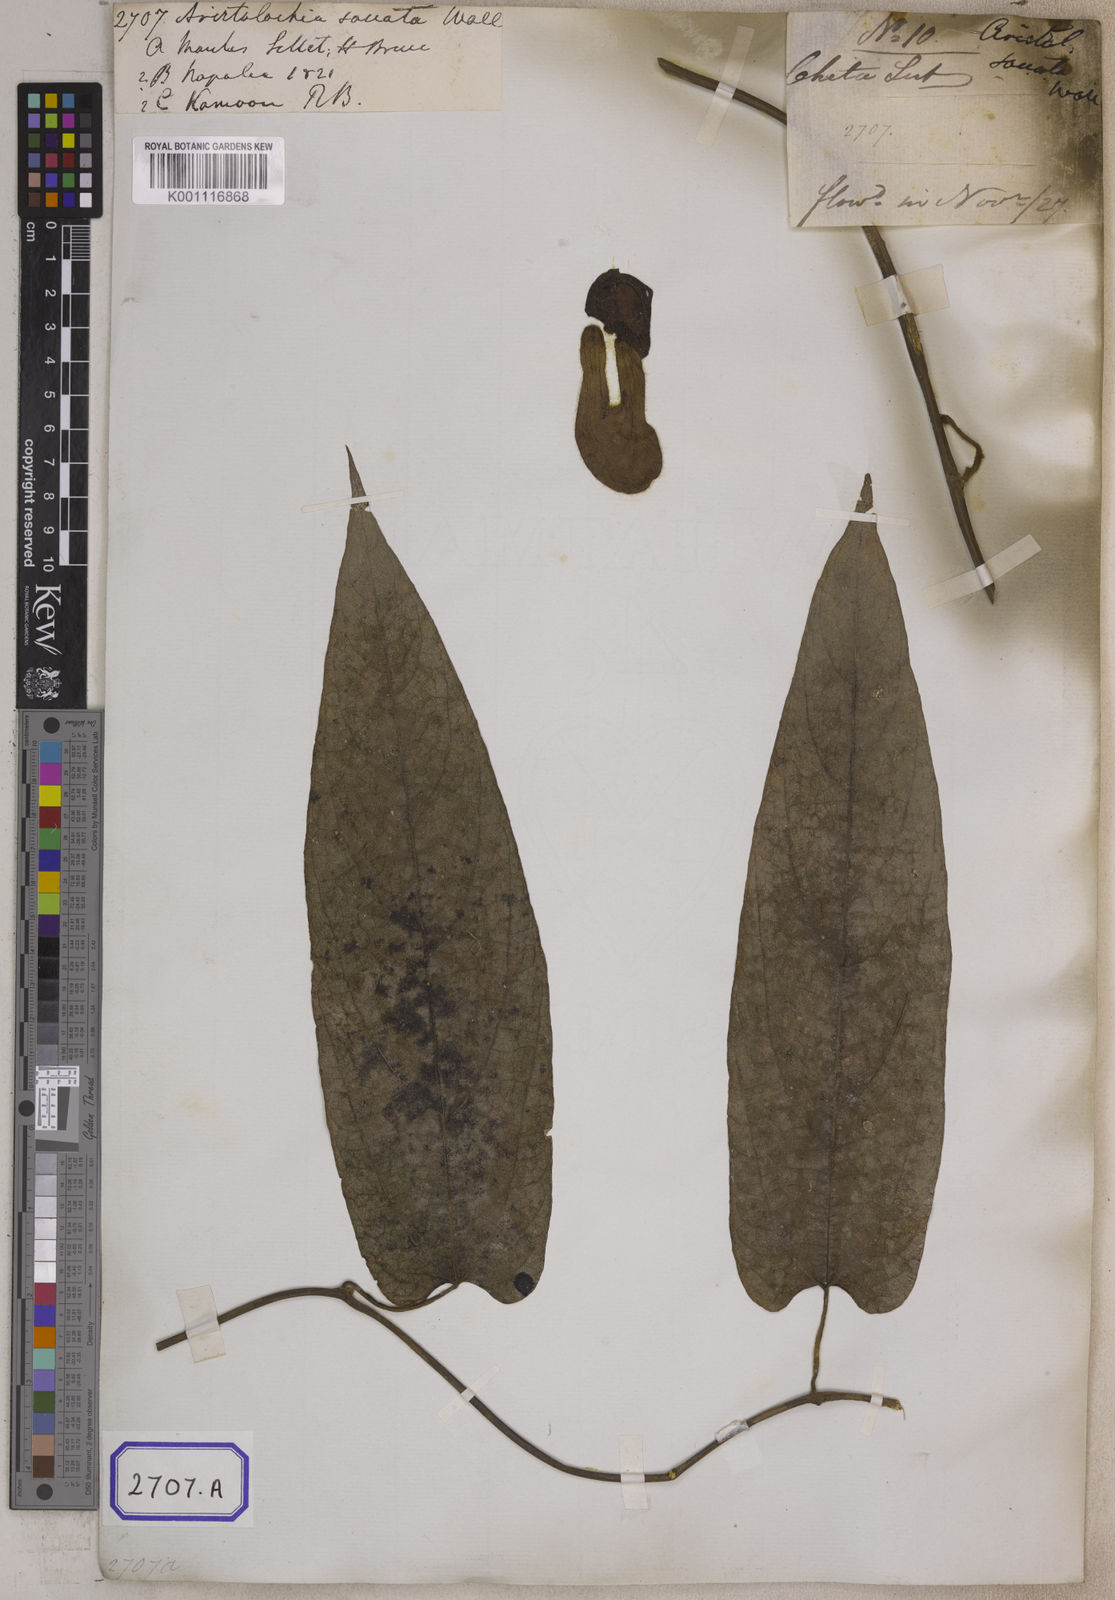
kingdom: Plantae
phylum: Tracheophyta
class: Magnoliopsida
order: Piperales
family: Aristolochiaceae
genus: Isotrema
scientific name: Isotrema saccatum
